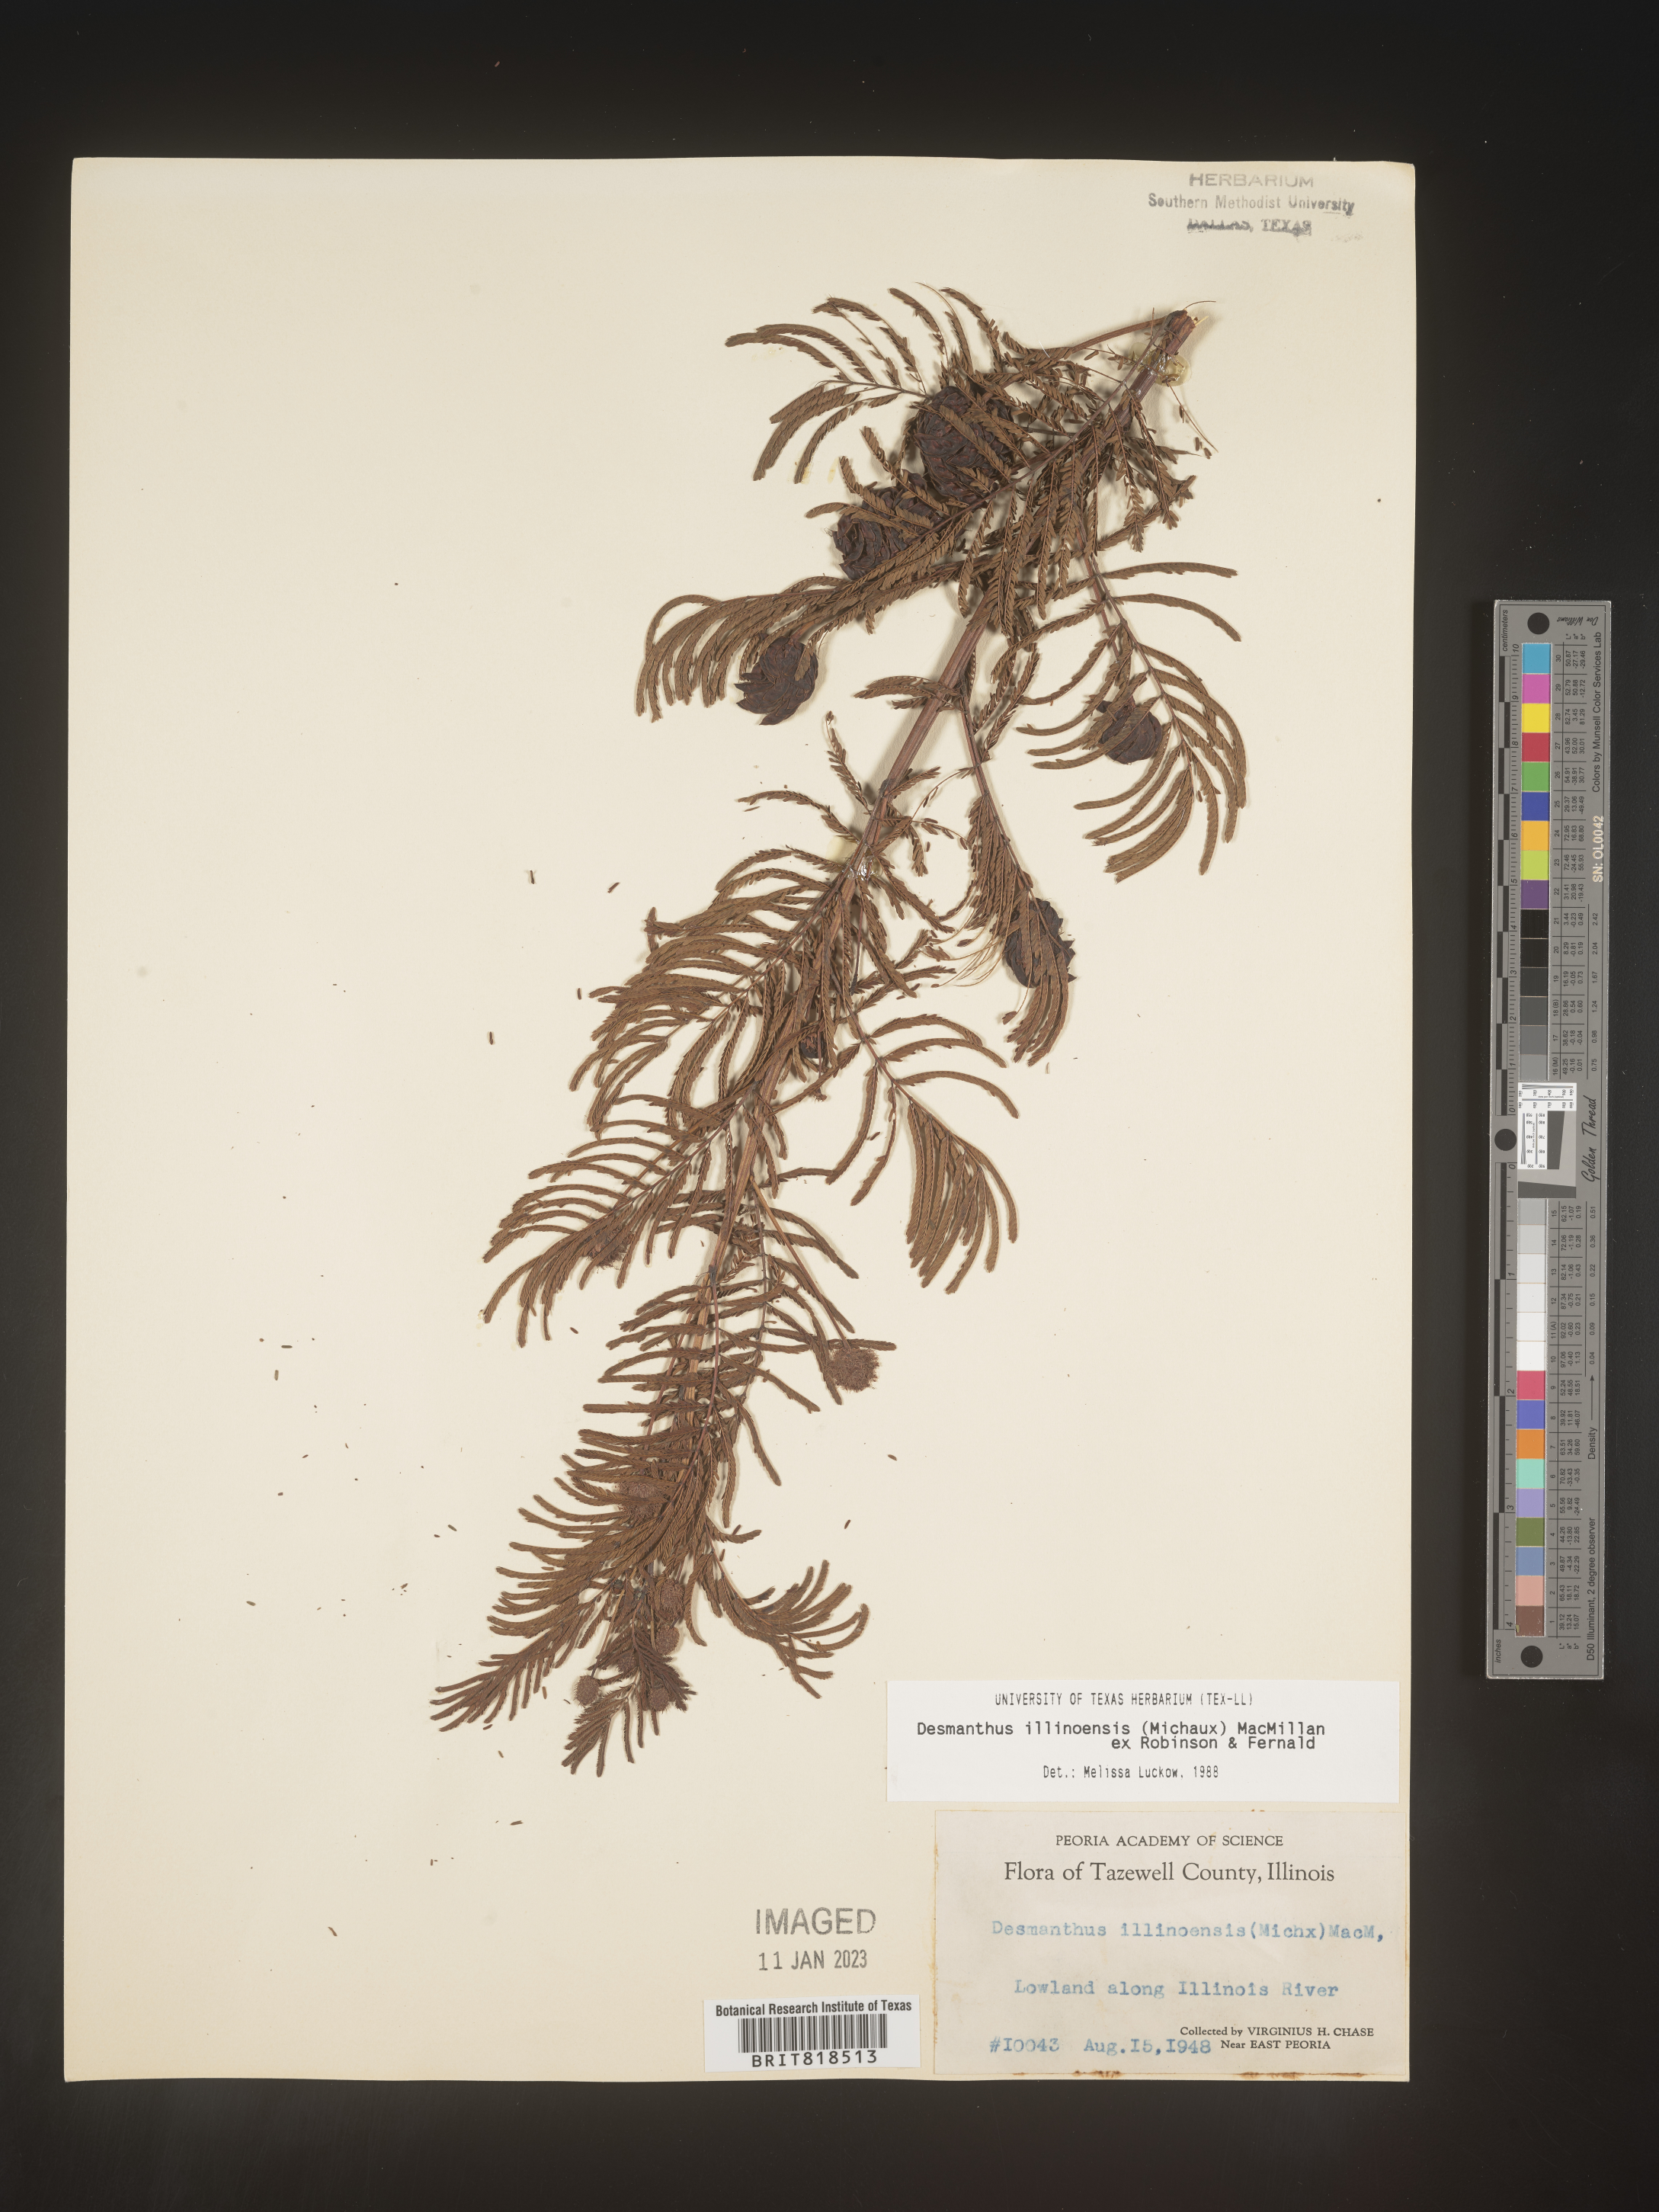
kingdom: Plantae
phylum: Tracheophyta
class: Magnoliopsida
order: Fabales
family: Fabaceae
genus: Desmanthus
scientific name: Desmanthus illinoensis
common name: Illinois bundle-flower
